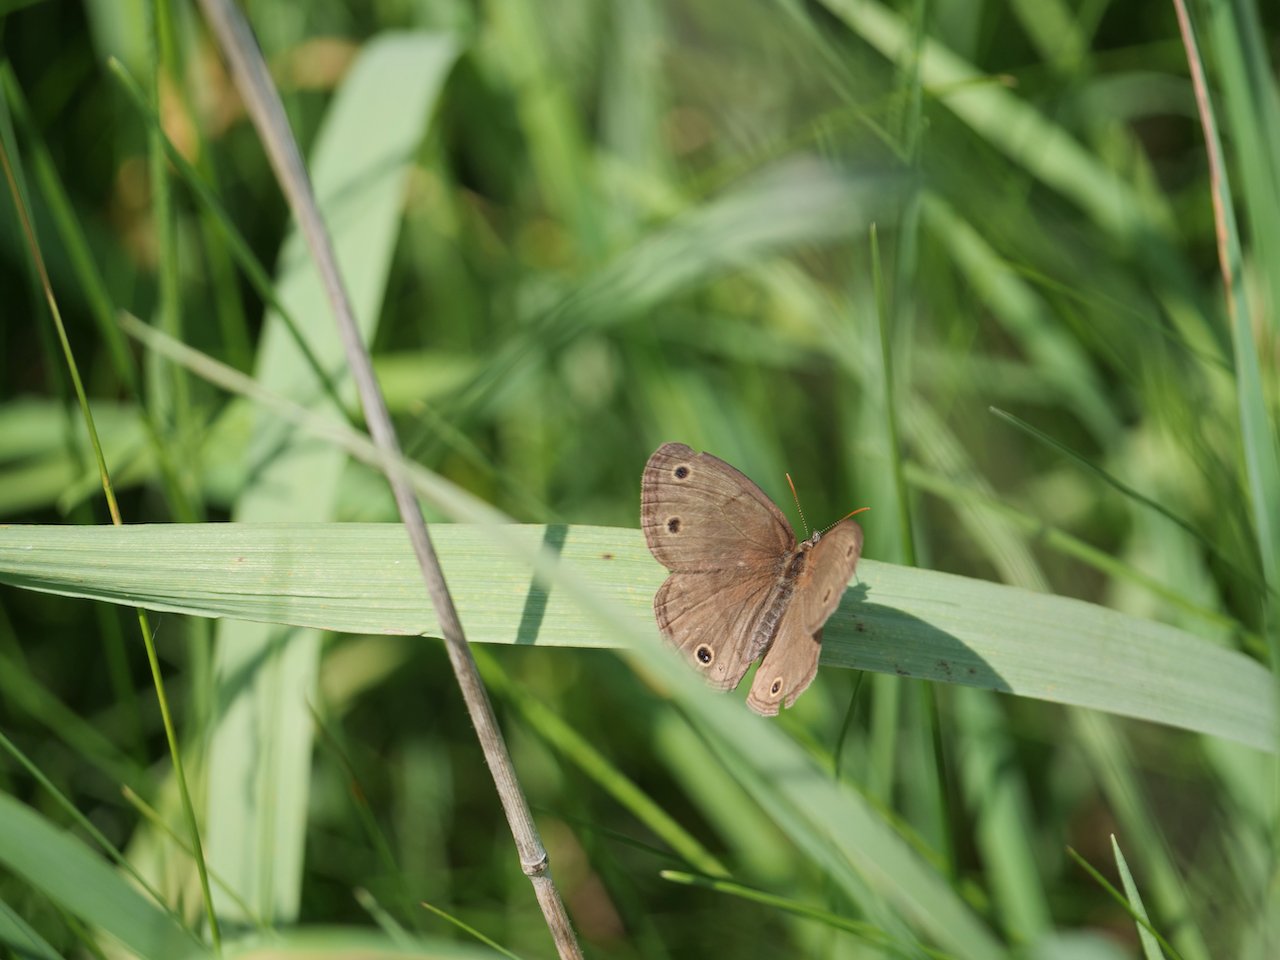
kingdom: Animalia
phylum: Arthropoda
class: Insecta
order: Lepidoptera
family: Nymphalidae
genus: Euptychia
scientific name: Euptychia cymela
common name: Little Wood Satyr
